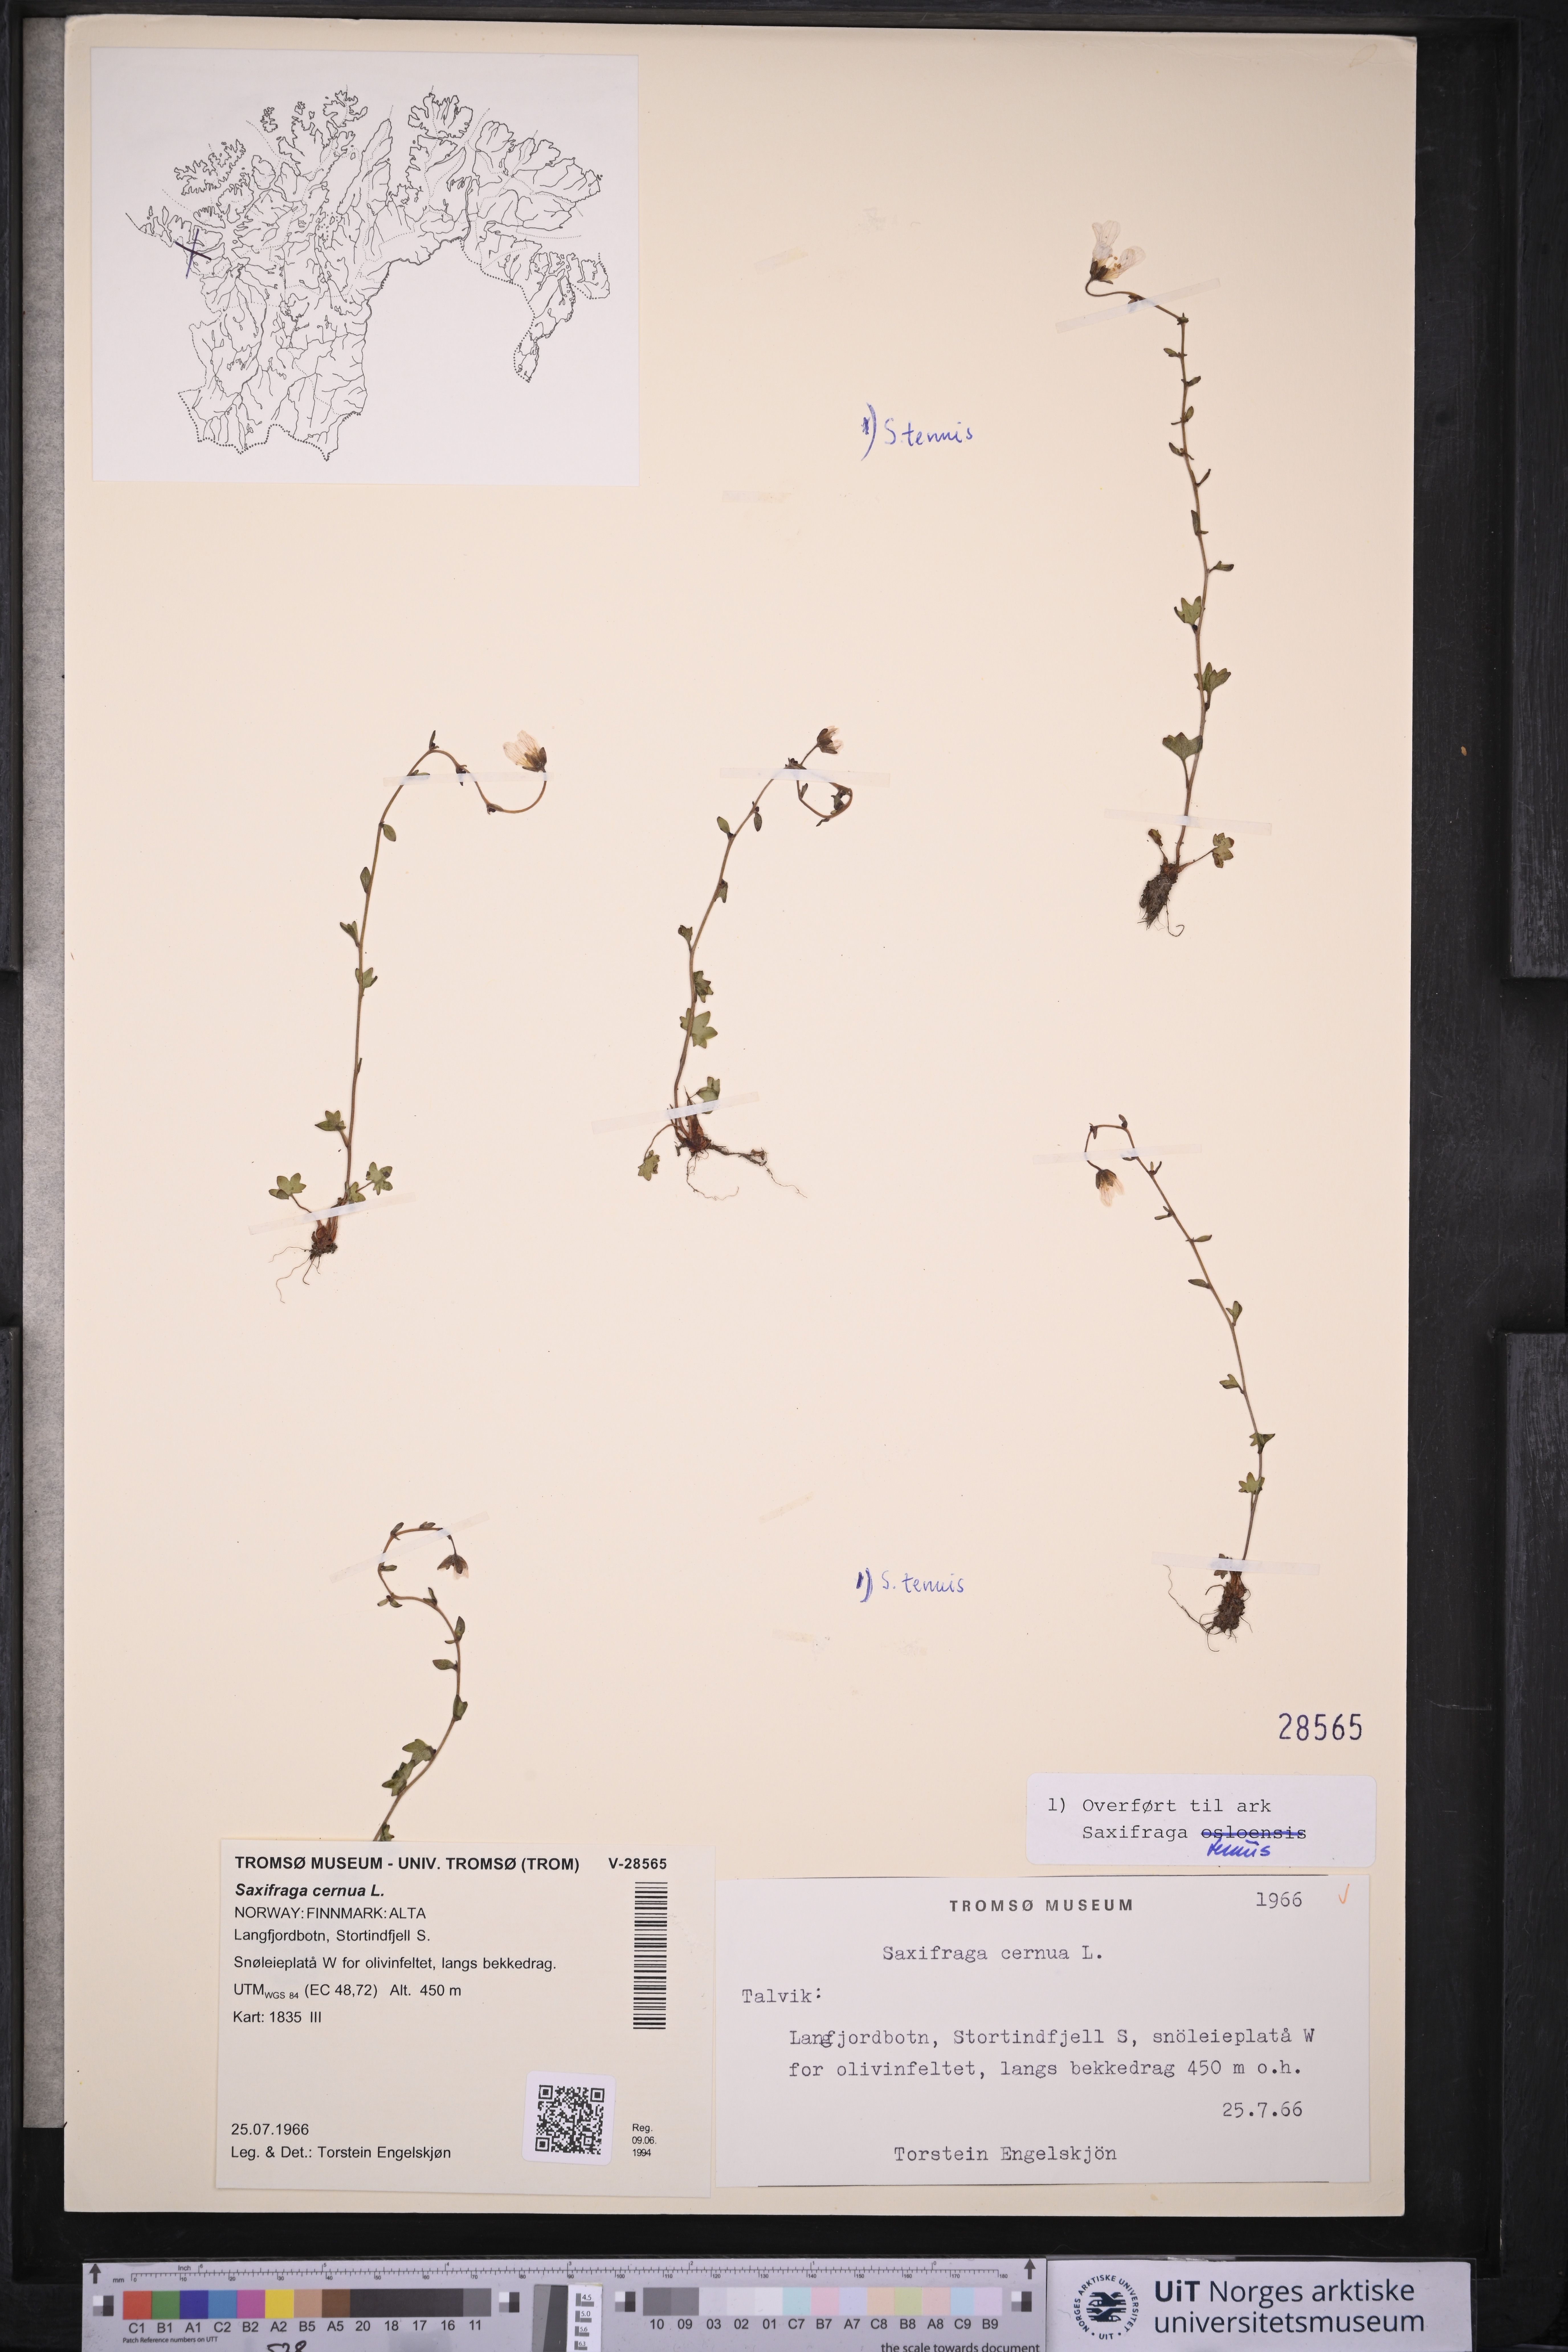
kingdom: Plantae
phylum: Tracheophyta
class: Magnoliopsida
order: Saxifragales
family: Saxifragaceae
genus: Saxifraga
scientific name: Saxifraga cernua
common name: Drooping saxifrage
